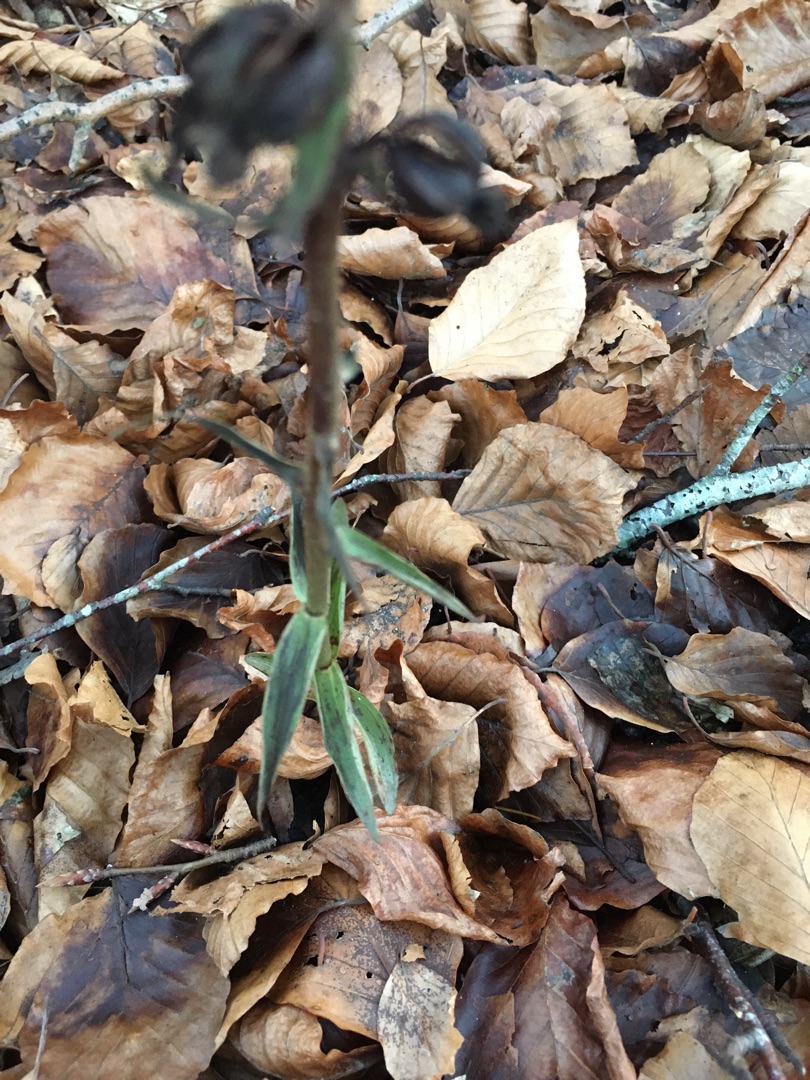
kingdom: Plantae
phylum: Tracheophyta
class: Liliopsida
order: Asparagales
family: Orchidaceae
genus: Epipactis
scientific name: Epipactis purpurata
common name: Tætblomstret hullæbe
